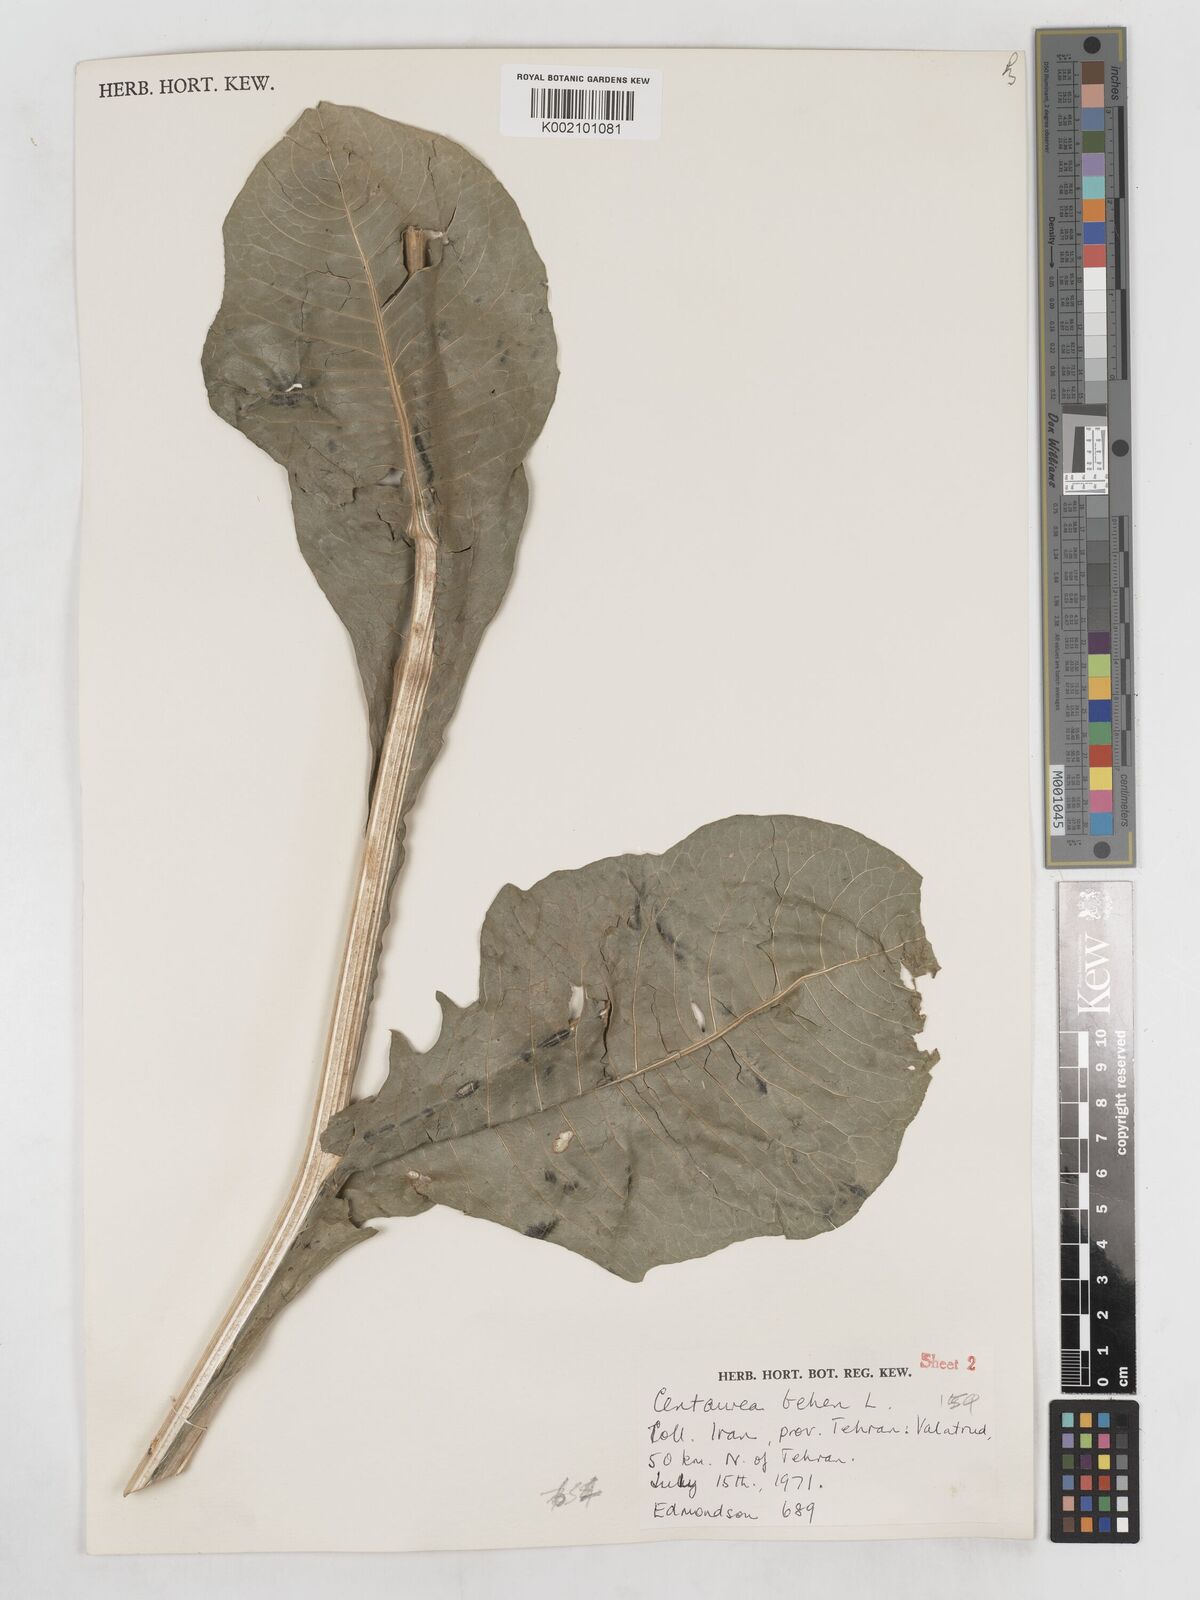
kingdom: Plantae
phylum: Tracheophyta
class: Magnoliopsida
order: Asterales
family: Asteraceae
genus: Centaurea
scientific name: Centaurea behen
